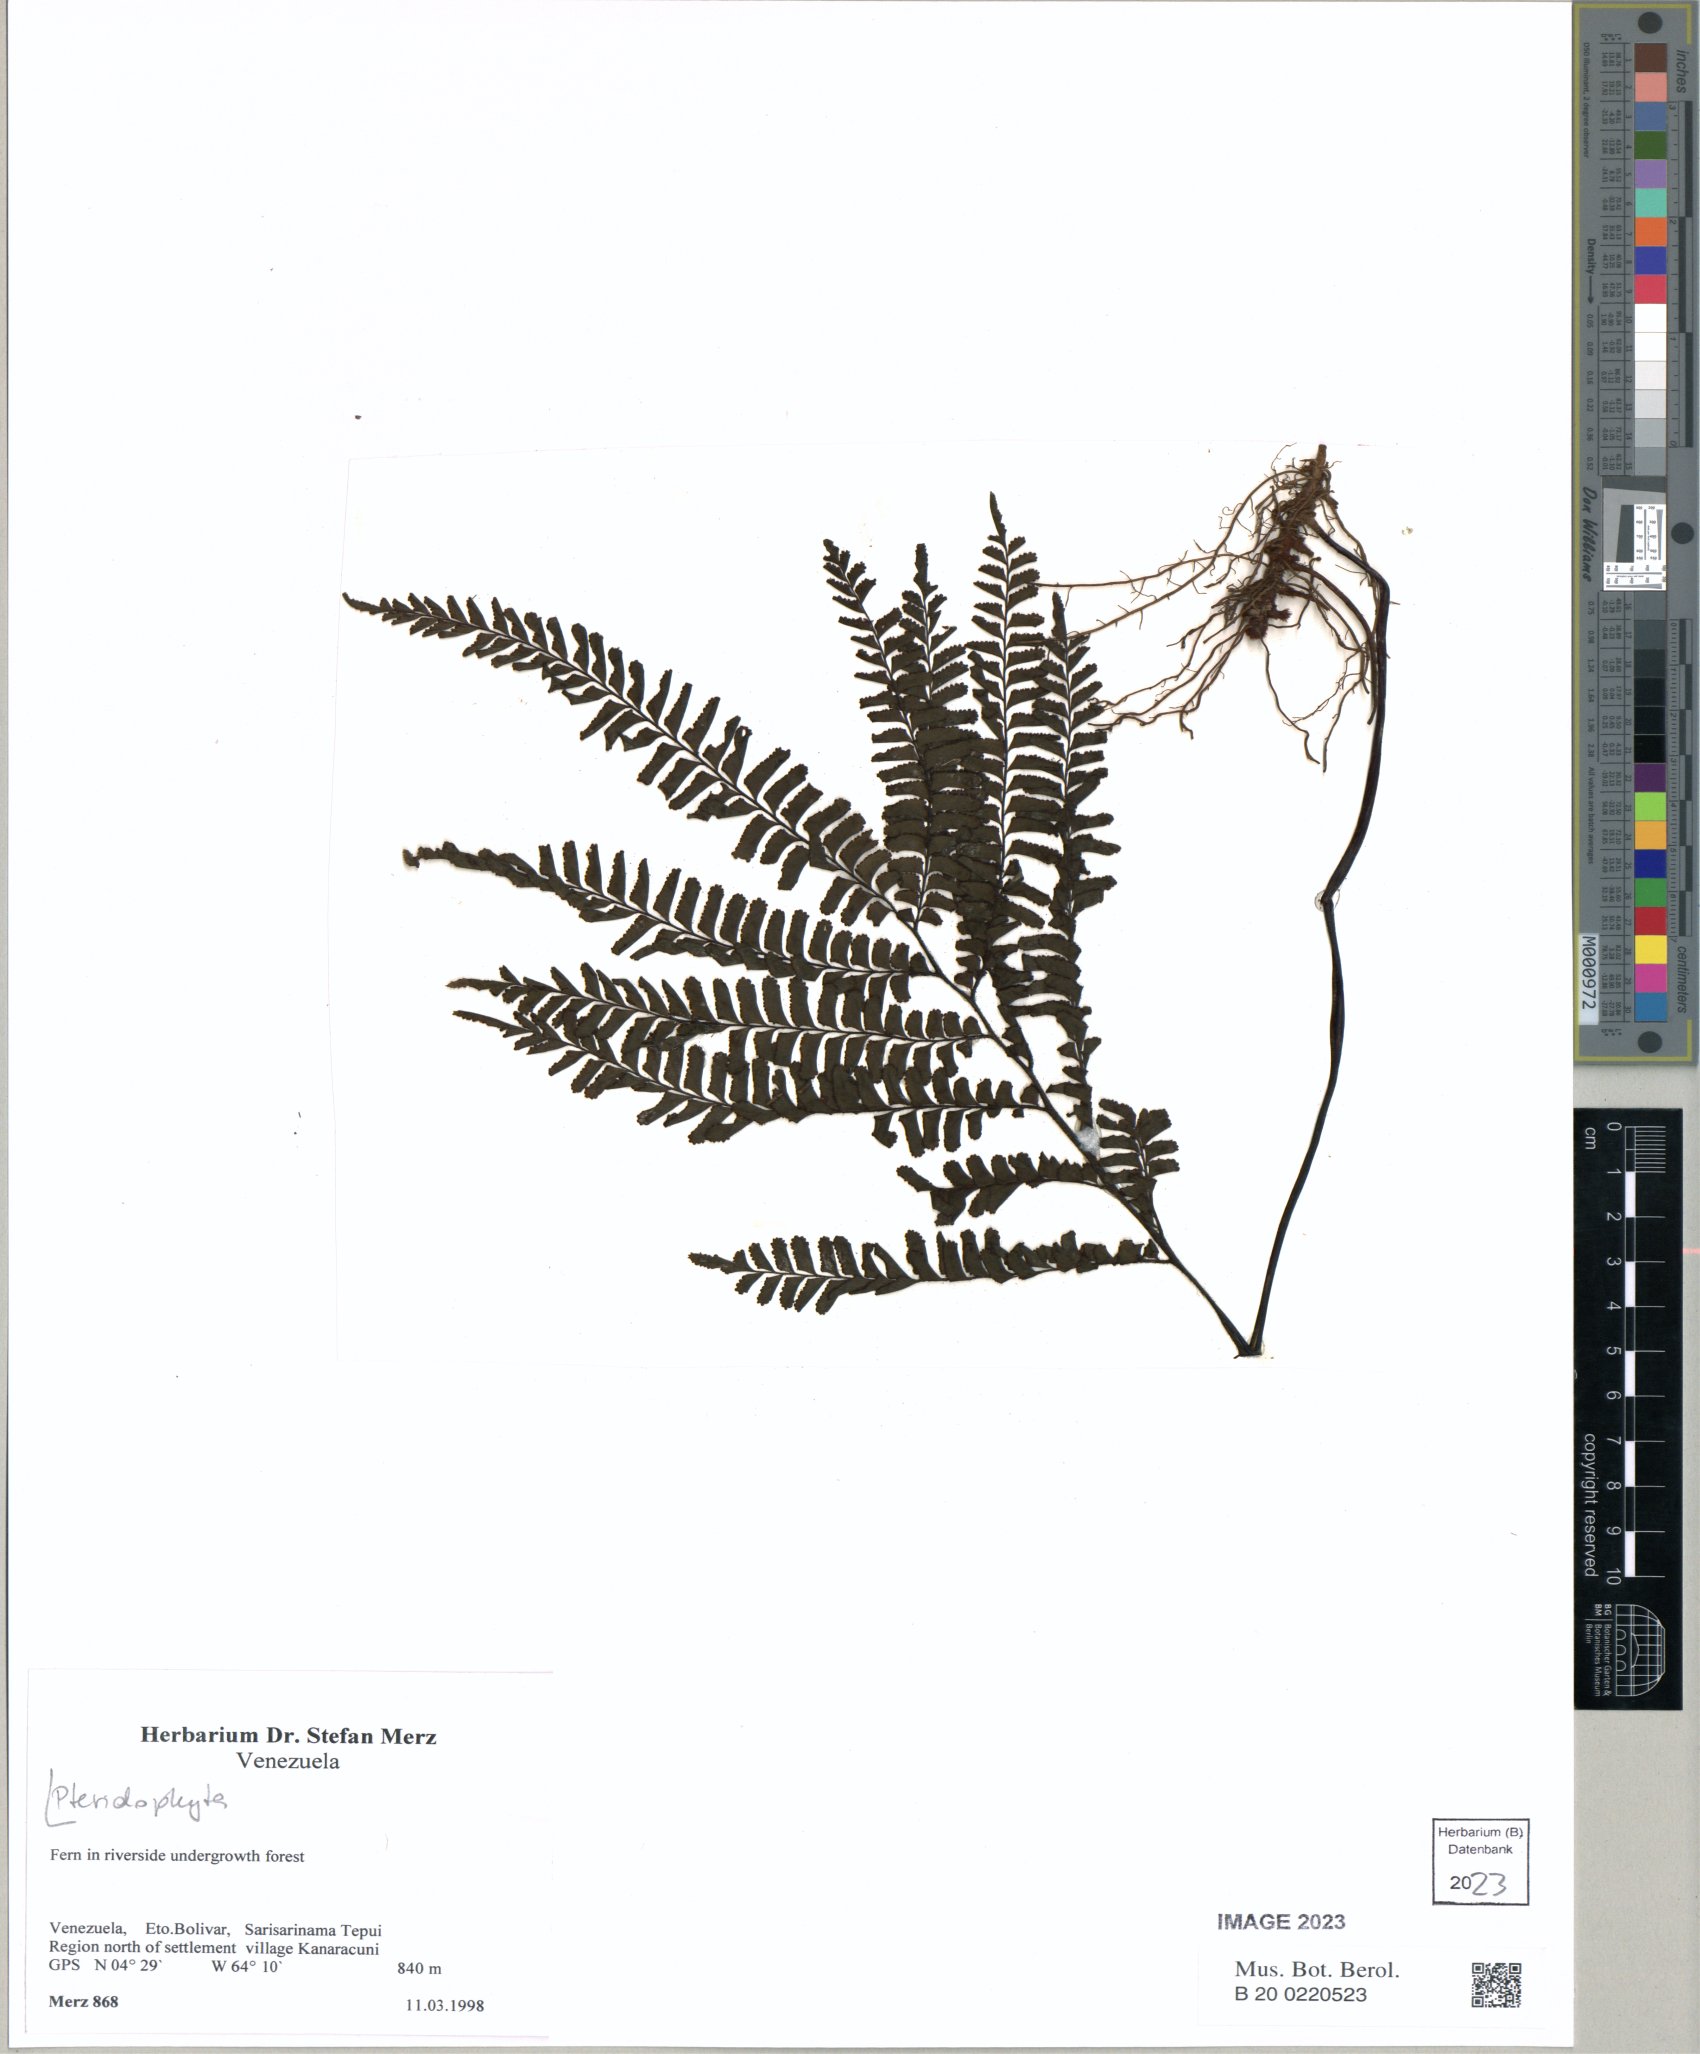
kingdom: Plantae
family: Pteridophyta
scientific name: Pteridophyta
